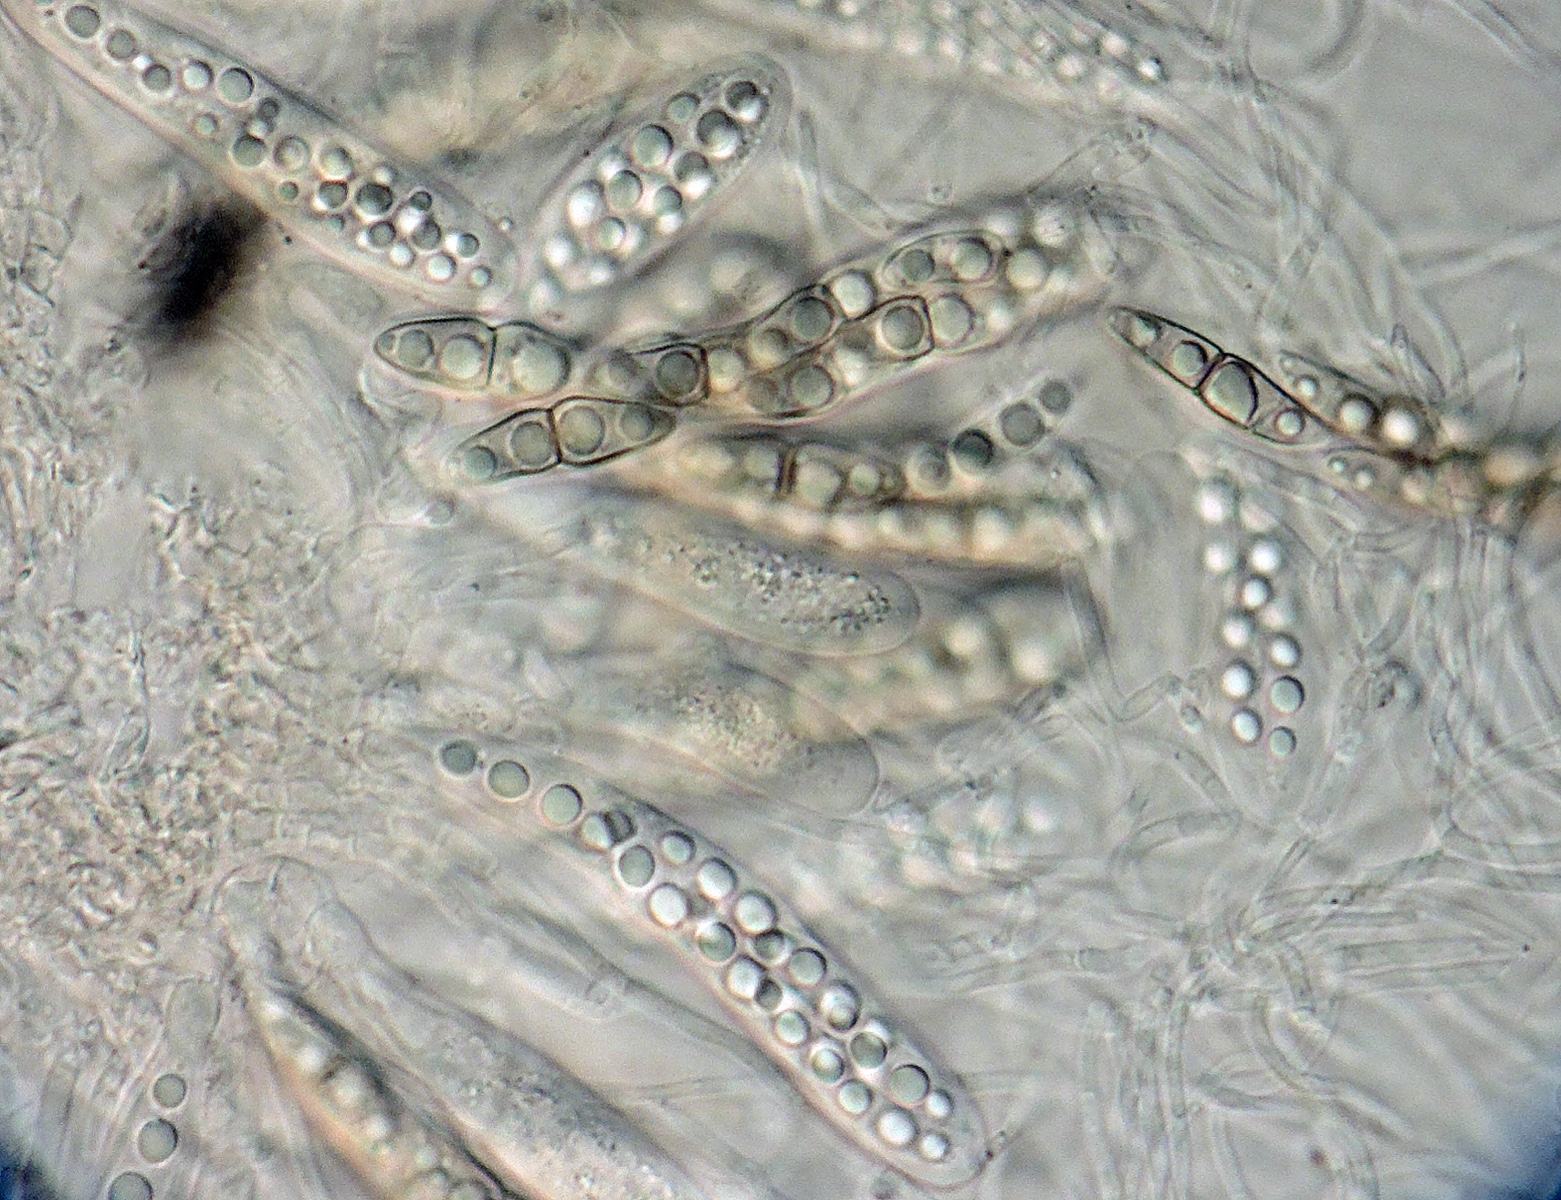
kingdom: Fungi
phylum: Ascomycota
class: Dothideomycetes
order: Pleosporales
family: Lophiostomataceae
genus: Lophiostoma
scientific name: Lophiostoma corticola
